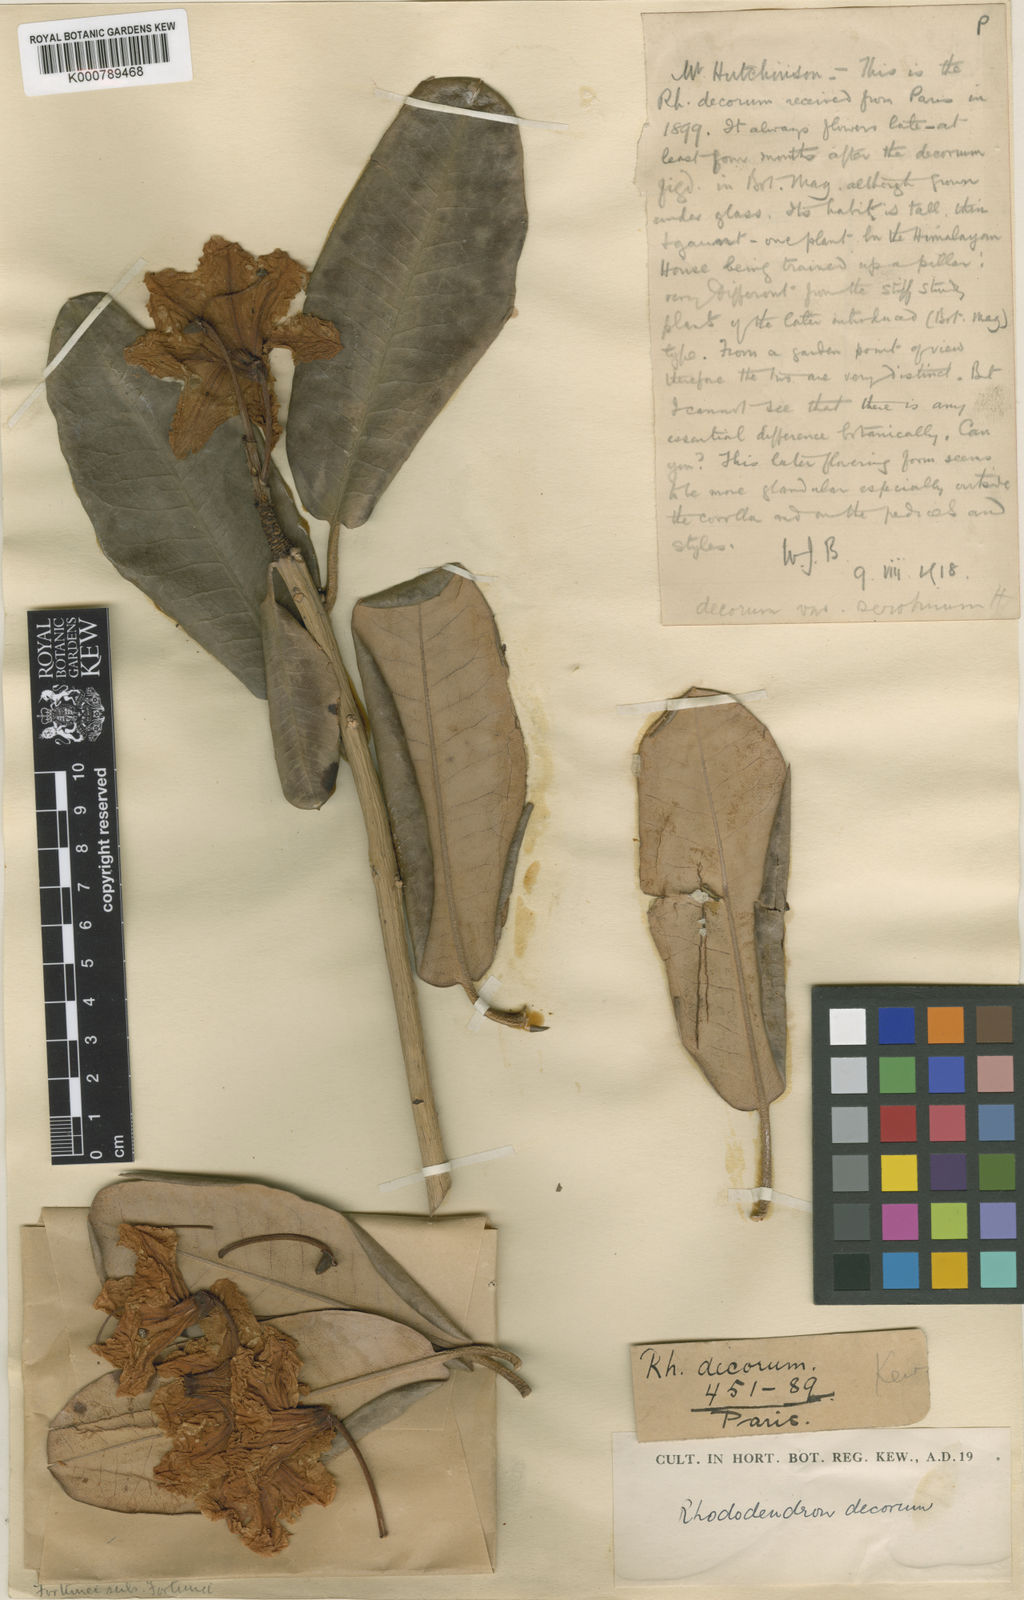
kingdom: Plantae
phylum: Tracheophyta
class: Magnoliopsida
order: Ericales
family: Ericaceae
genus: Rhododendron
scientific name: Rhododendron serotinum
